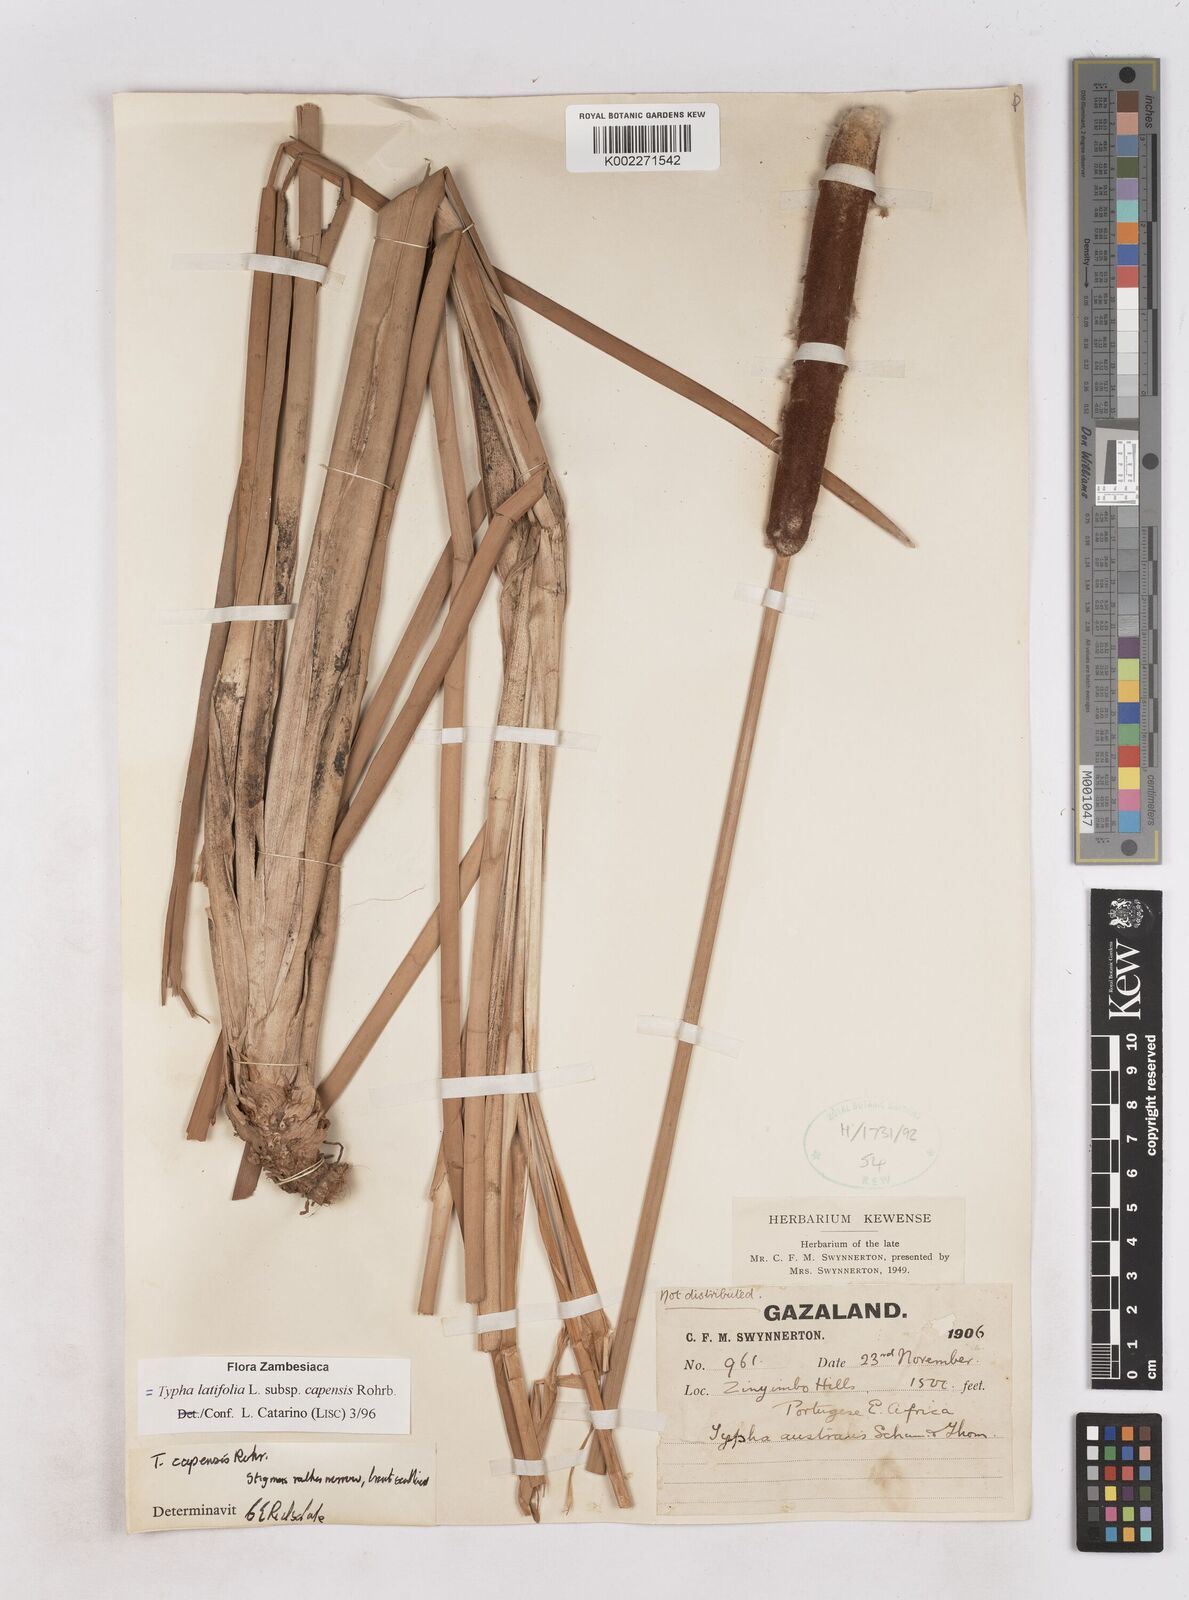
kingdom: Plantae
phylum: Tracheophyta
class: Liliopsida
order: Poales
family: Typhaceae
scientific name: Typhaceae
